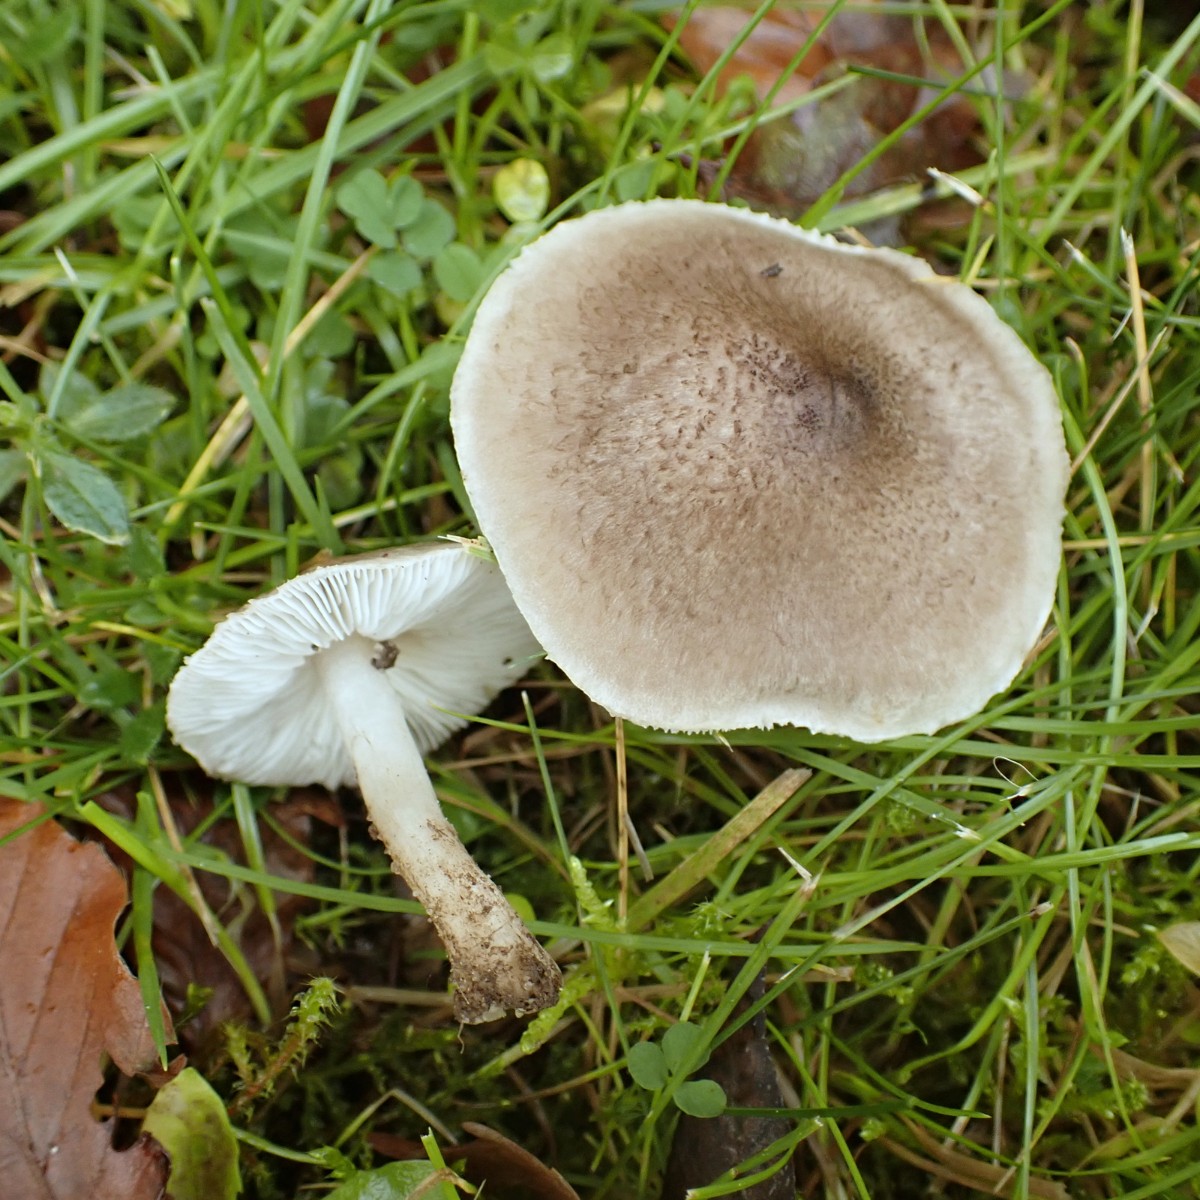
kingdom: Fungi
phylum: Basidiomycota
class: Agaricomycetes
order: Agaricales
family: Tricholomataceae
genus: Tricholoma
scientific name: Tricholoma scalpturatum
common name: gulplettet ridderhat
